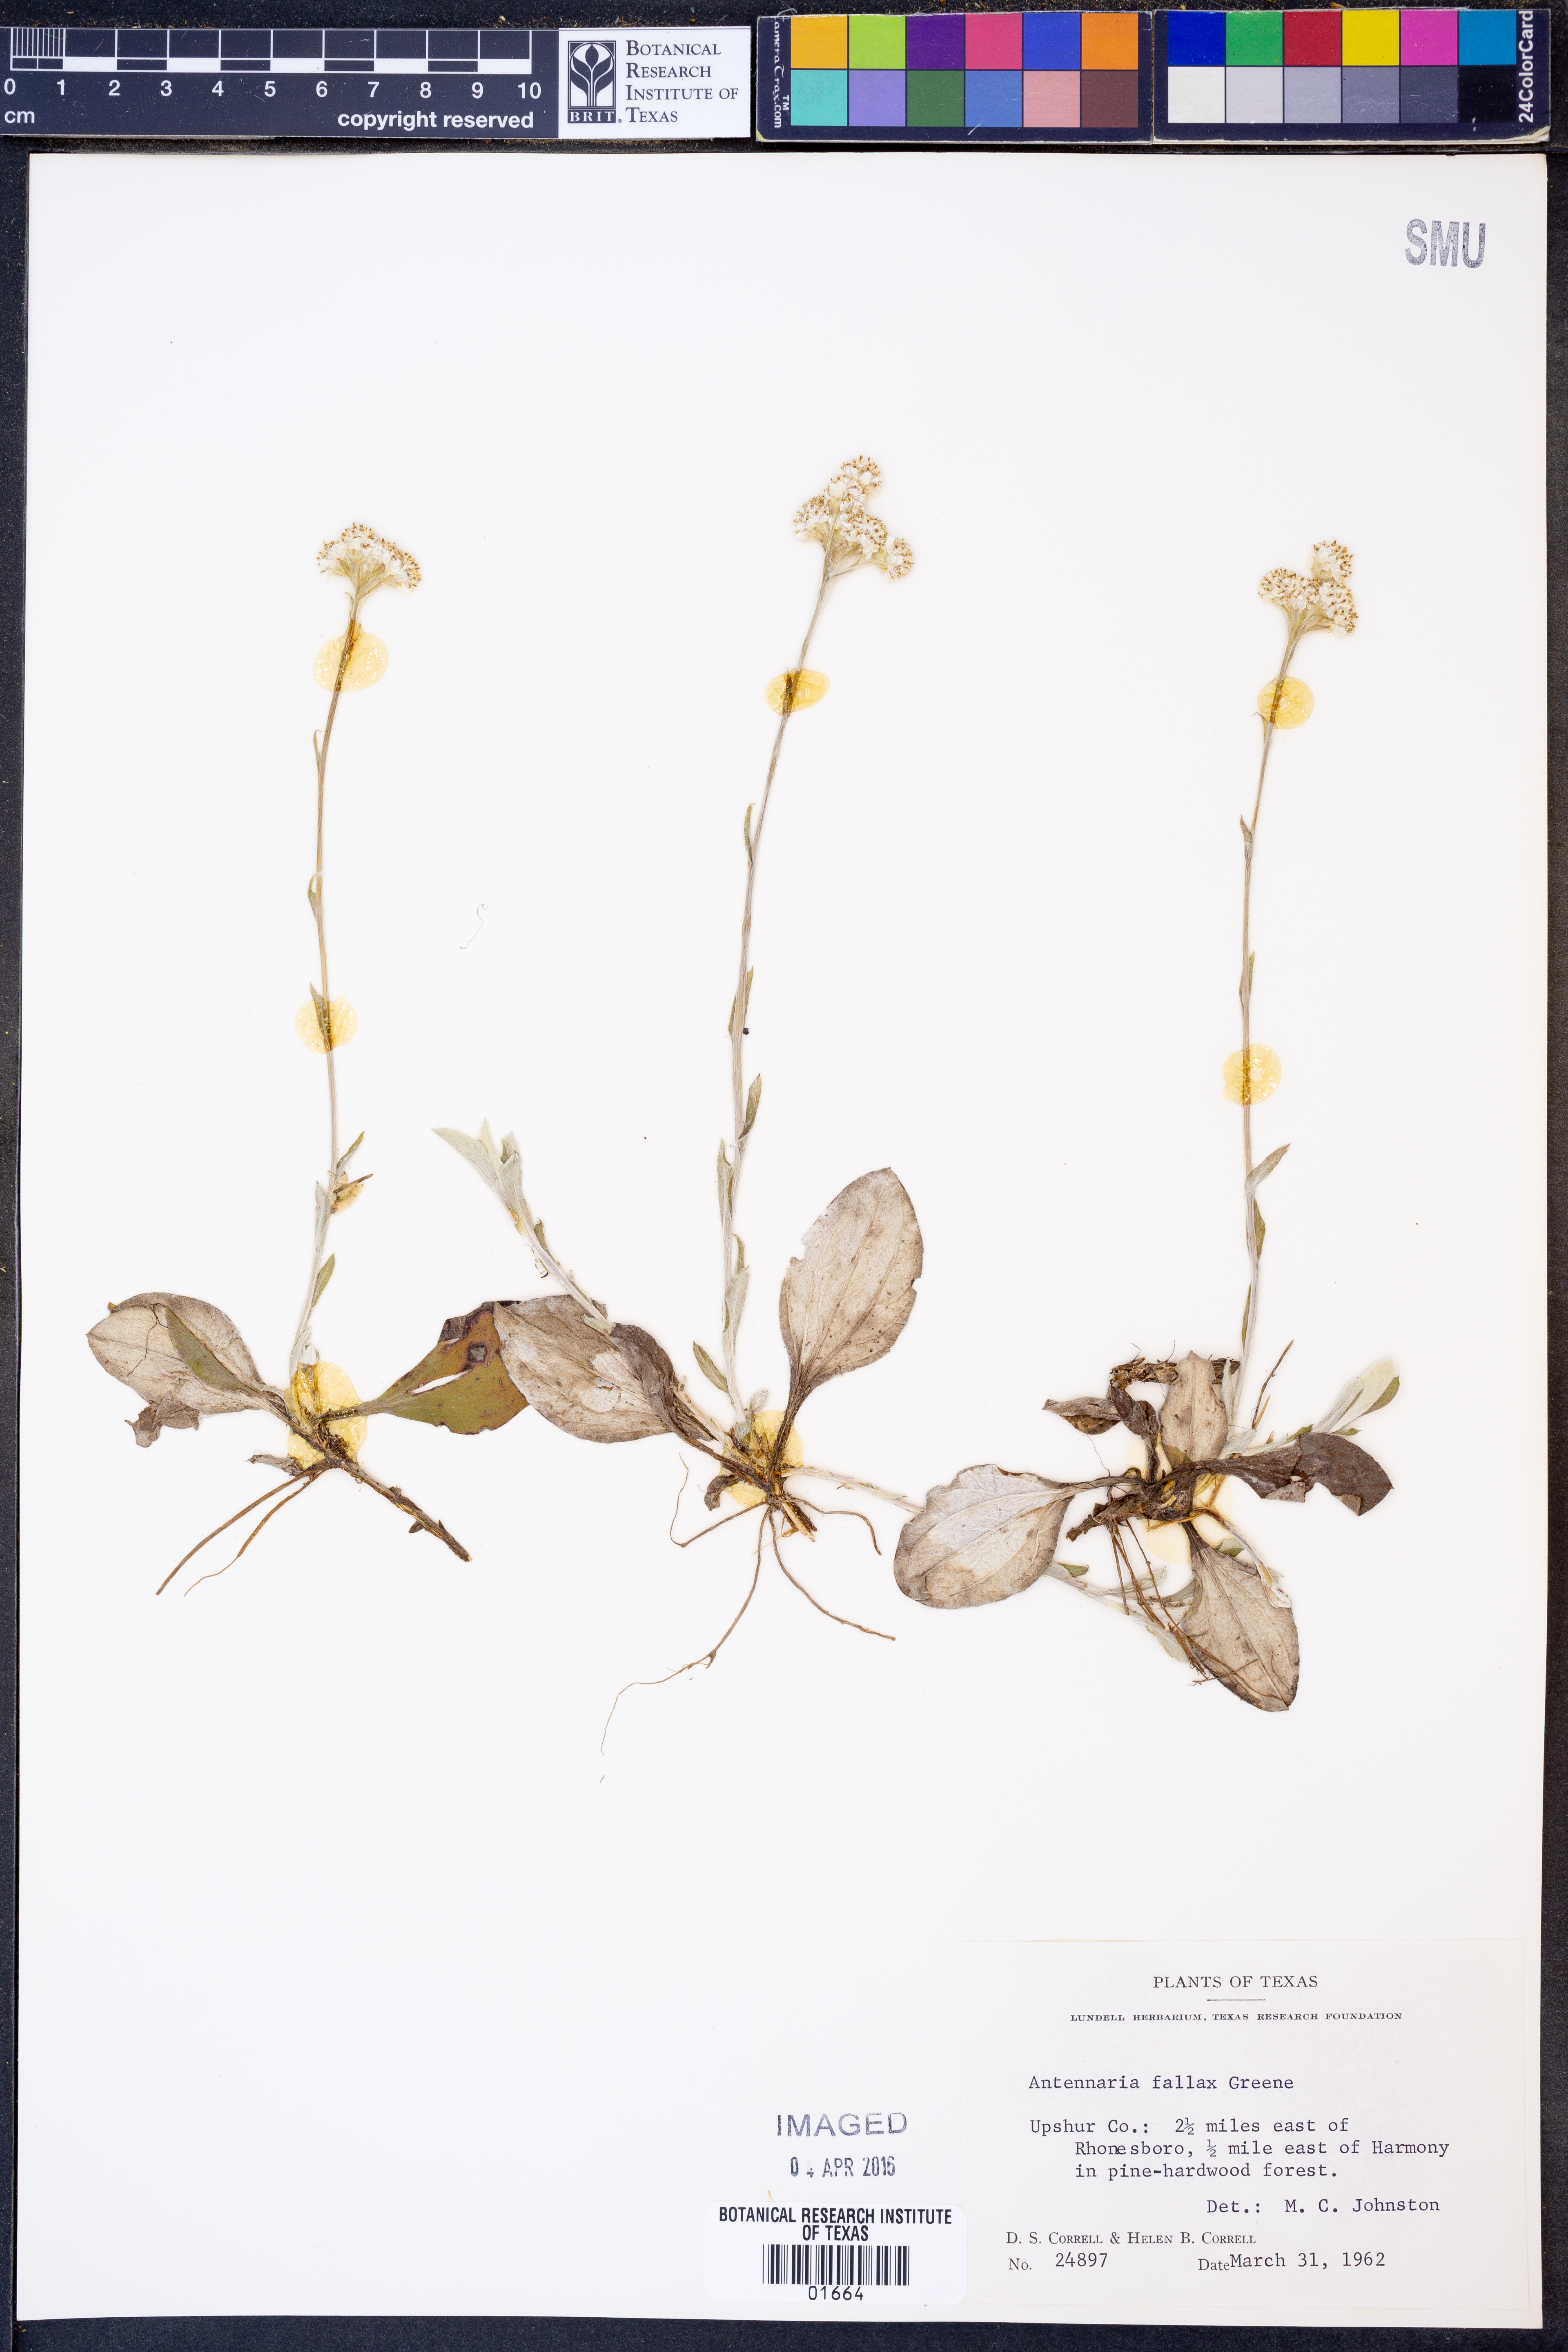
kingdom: Plantae
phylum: Tracheophyta
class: Magnoliopsida
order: Asterales
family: Asteraceae
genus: Antennaria
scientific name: Antennaria parlinii
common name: Parlin's pussytoes
